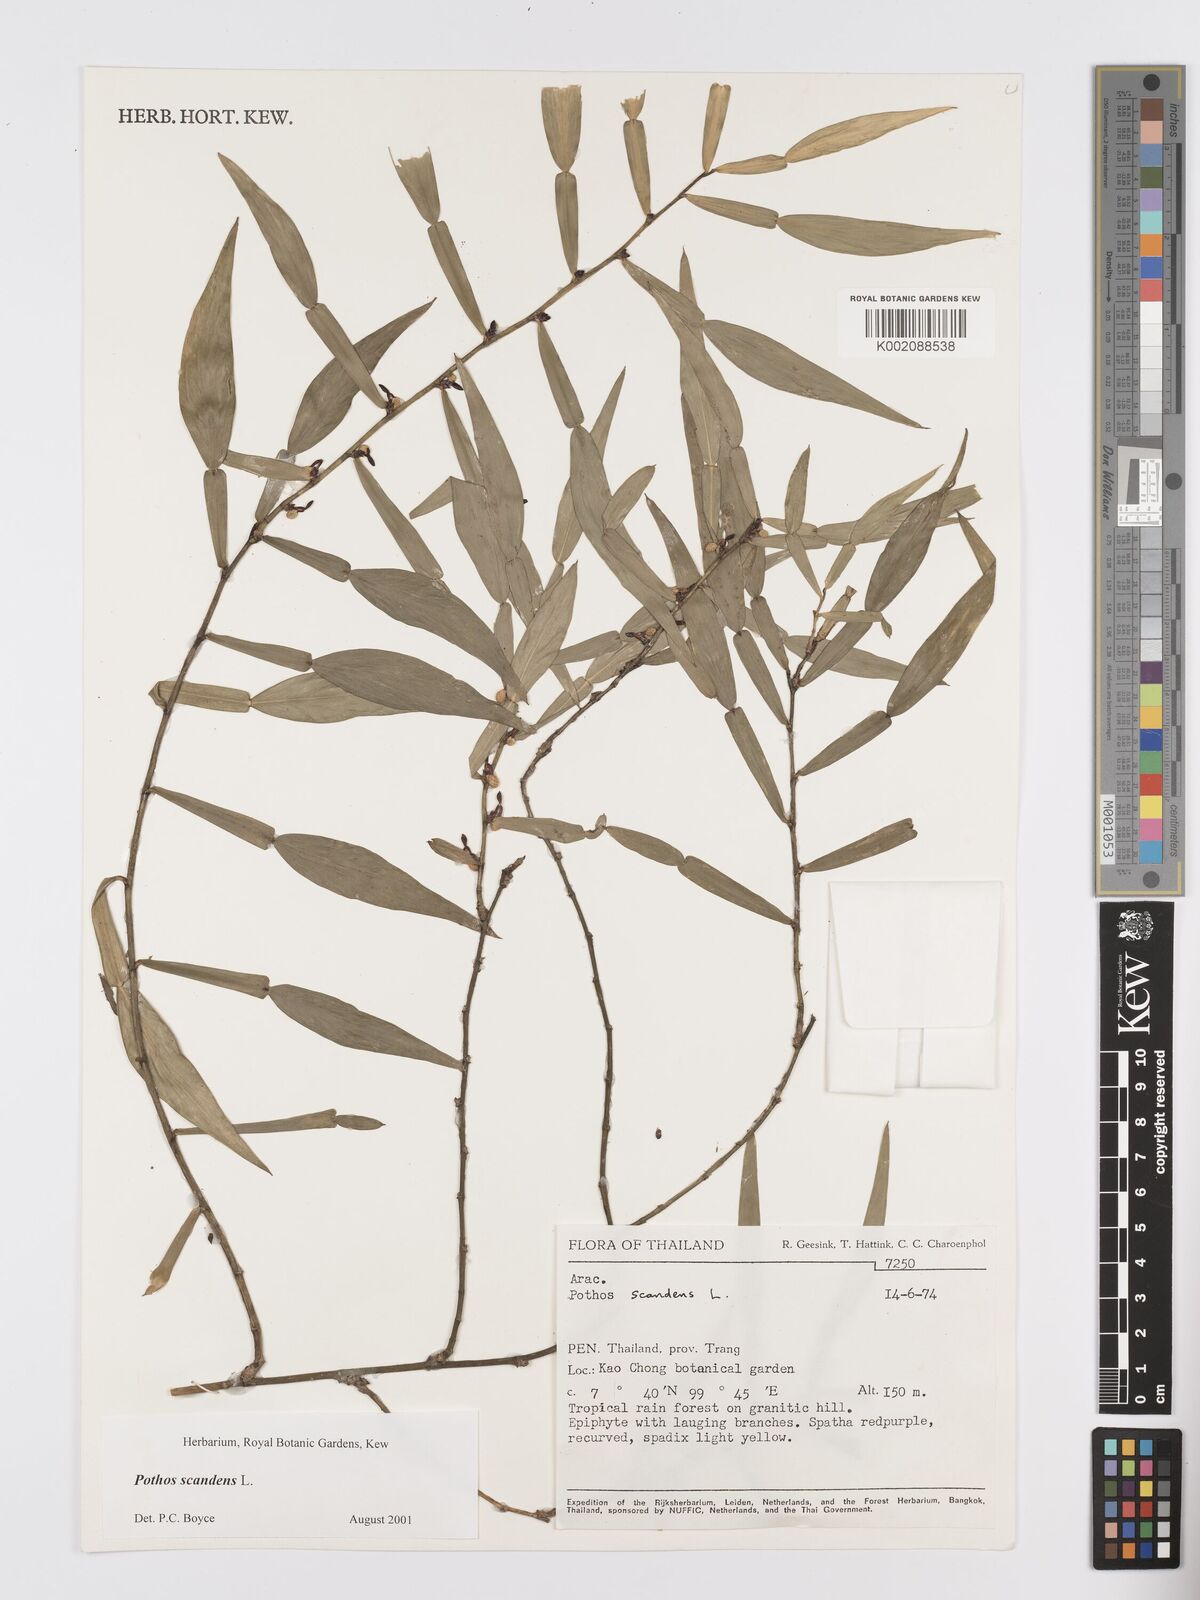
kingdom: Plantae
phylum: Tracheophyta
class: Liliopsida
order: Alismatales
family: Araceae
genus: Pothos
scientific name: Pothos scandens
